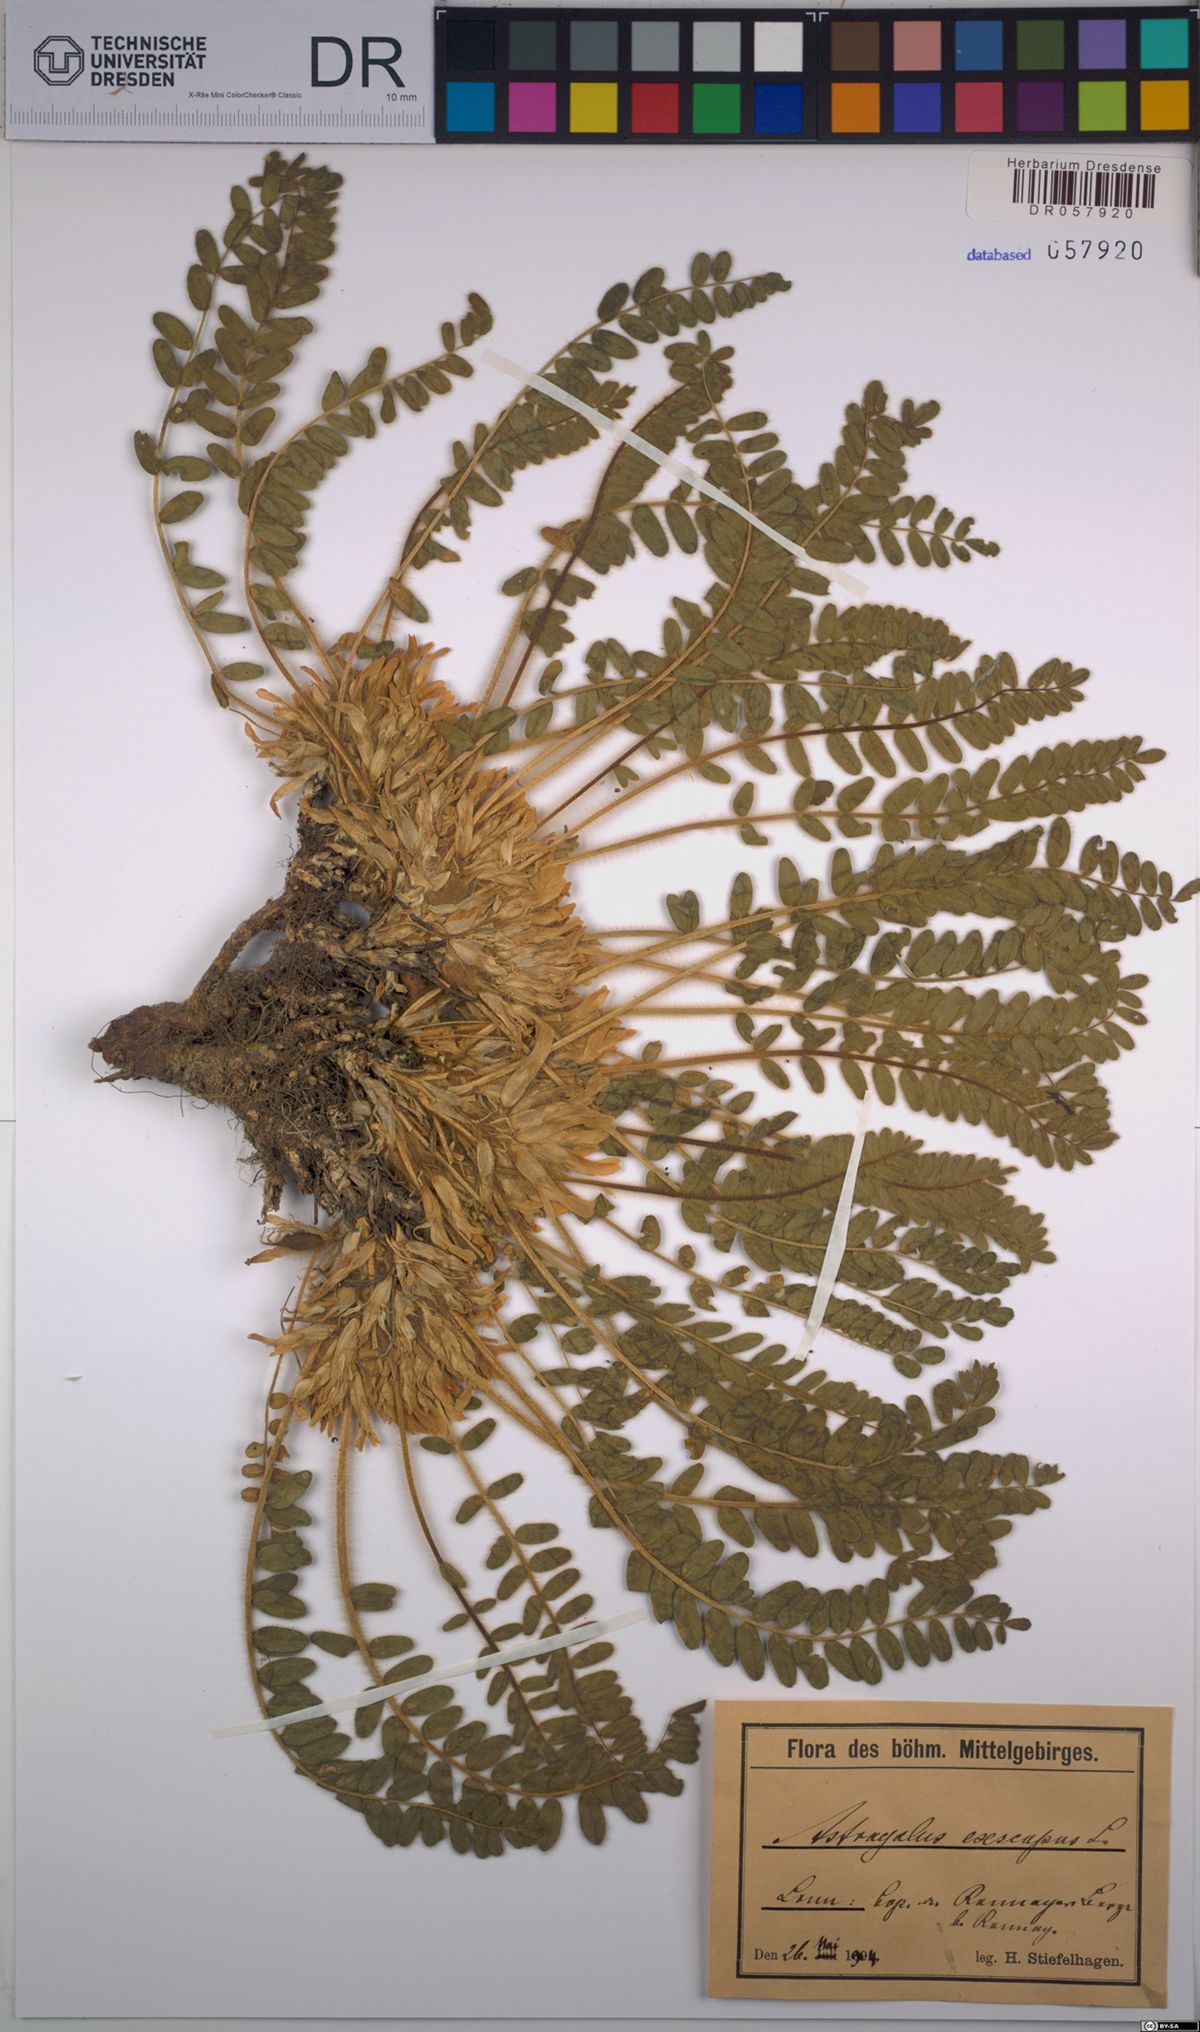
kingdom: Plantae
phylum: Tracheophyta
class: Magnoliopsida
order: Fabales
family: Fabaceae
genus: Astragalus
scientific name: Astragalus exscapus
